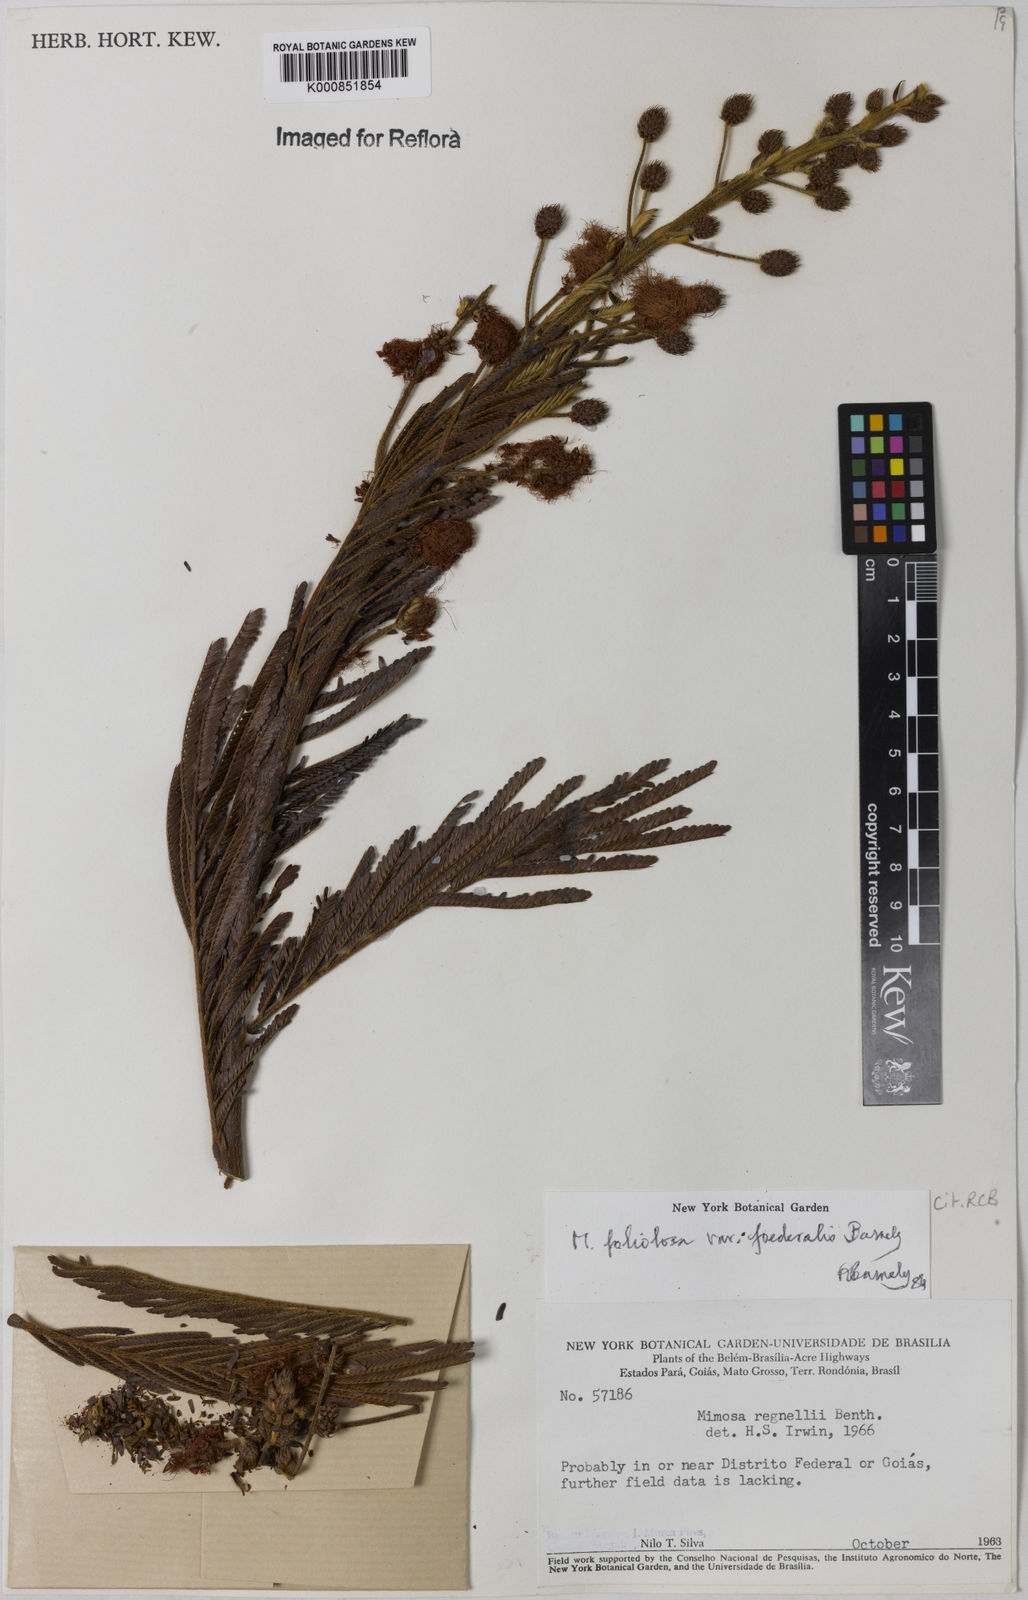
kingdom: Plantae
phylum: Tracheophyta
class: Magnoliopsida
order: Fabales
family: Fabaceae
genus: Mimosa
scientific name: Mimosa foliolosa
